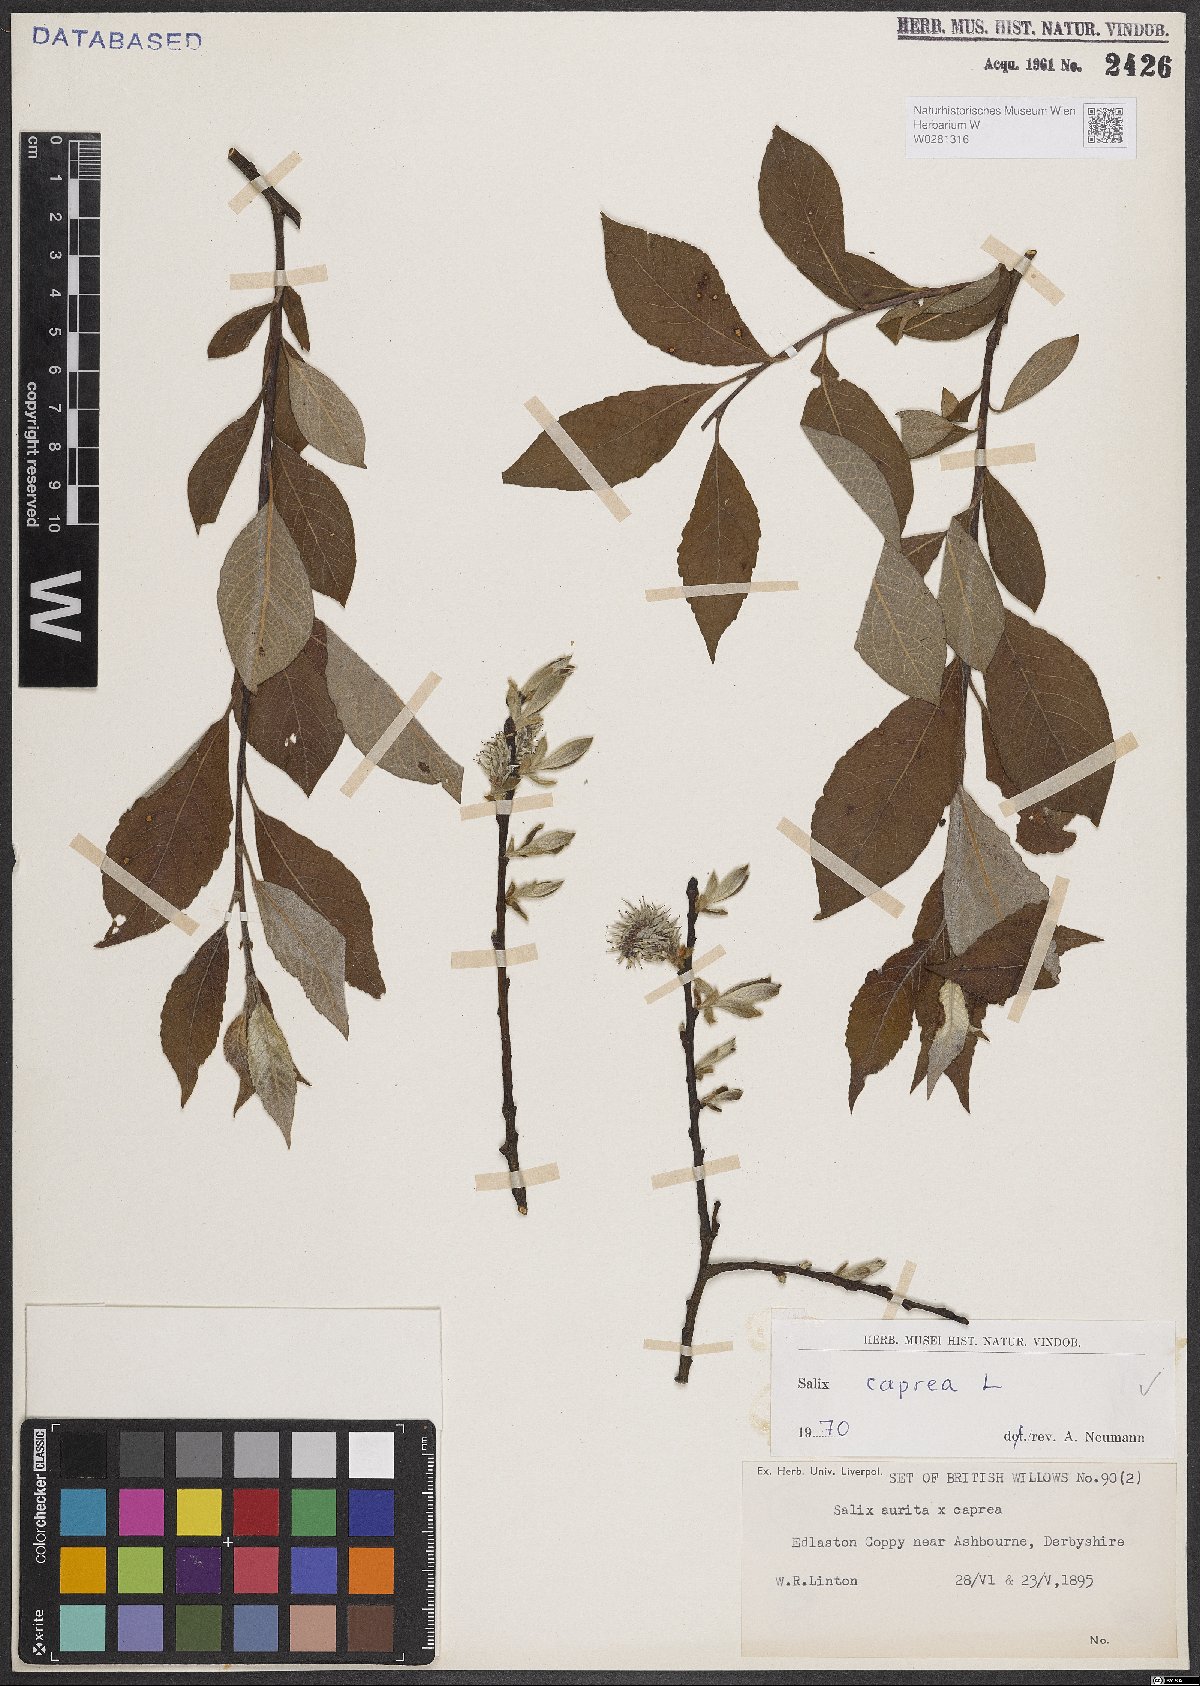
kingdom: Plantae
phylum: Tracheophyta
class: Magnoliopsida
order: Malpighiales
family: Salicaceae
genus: Salix
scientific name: Salix caprea
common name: Goat willow
